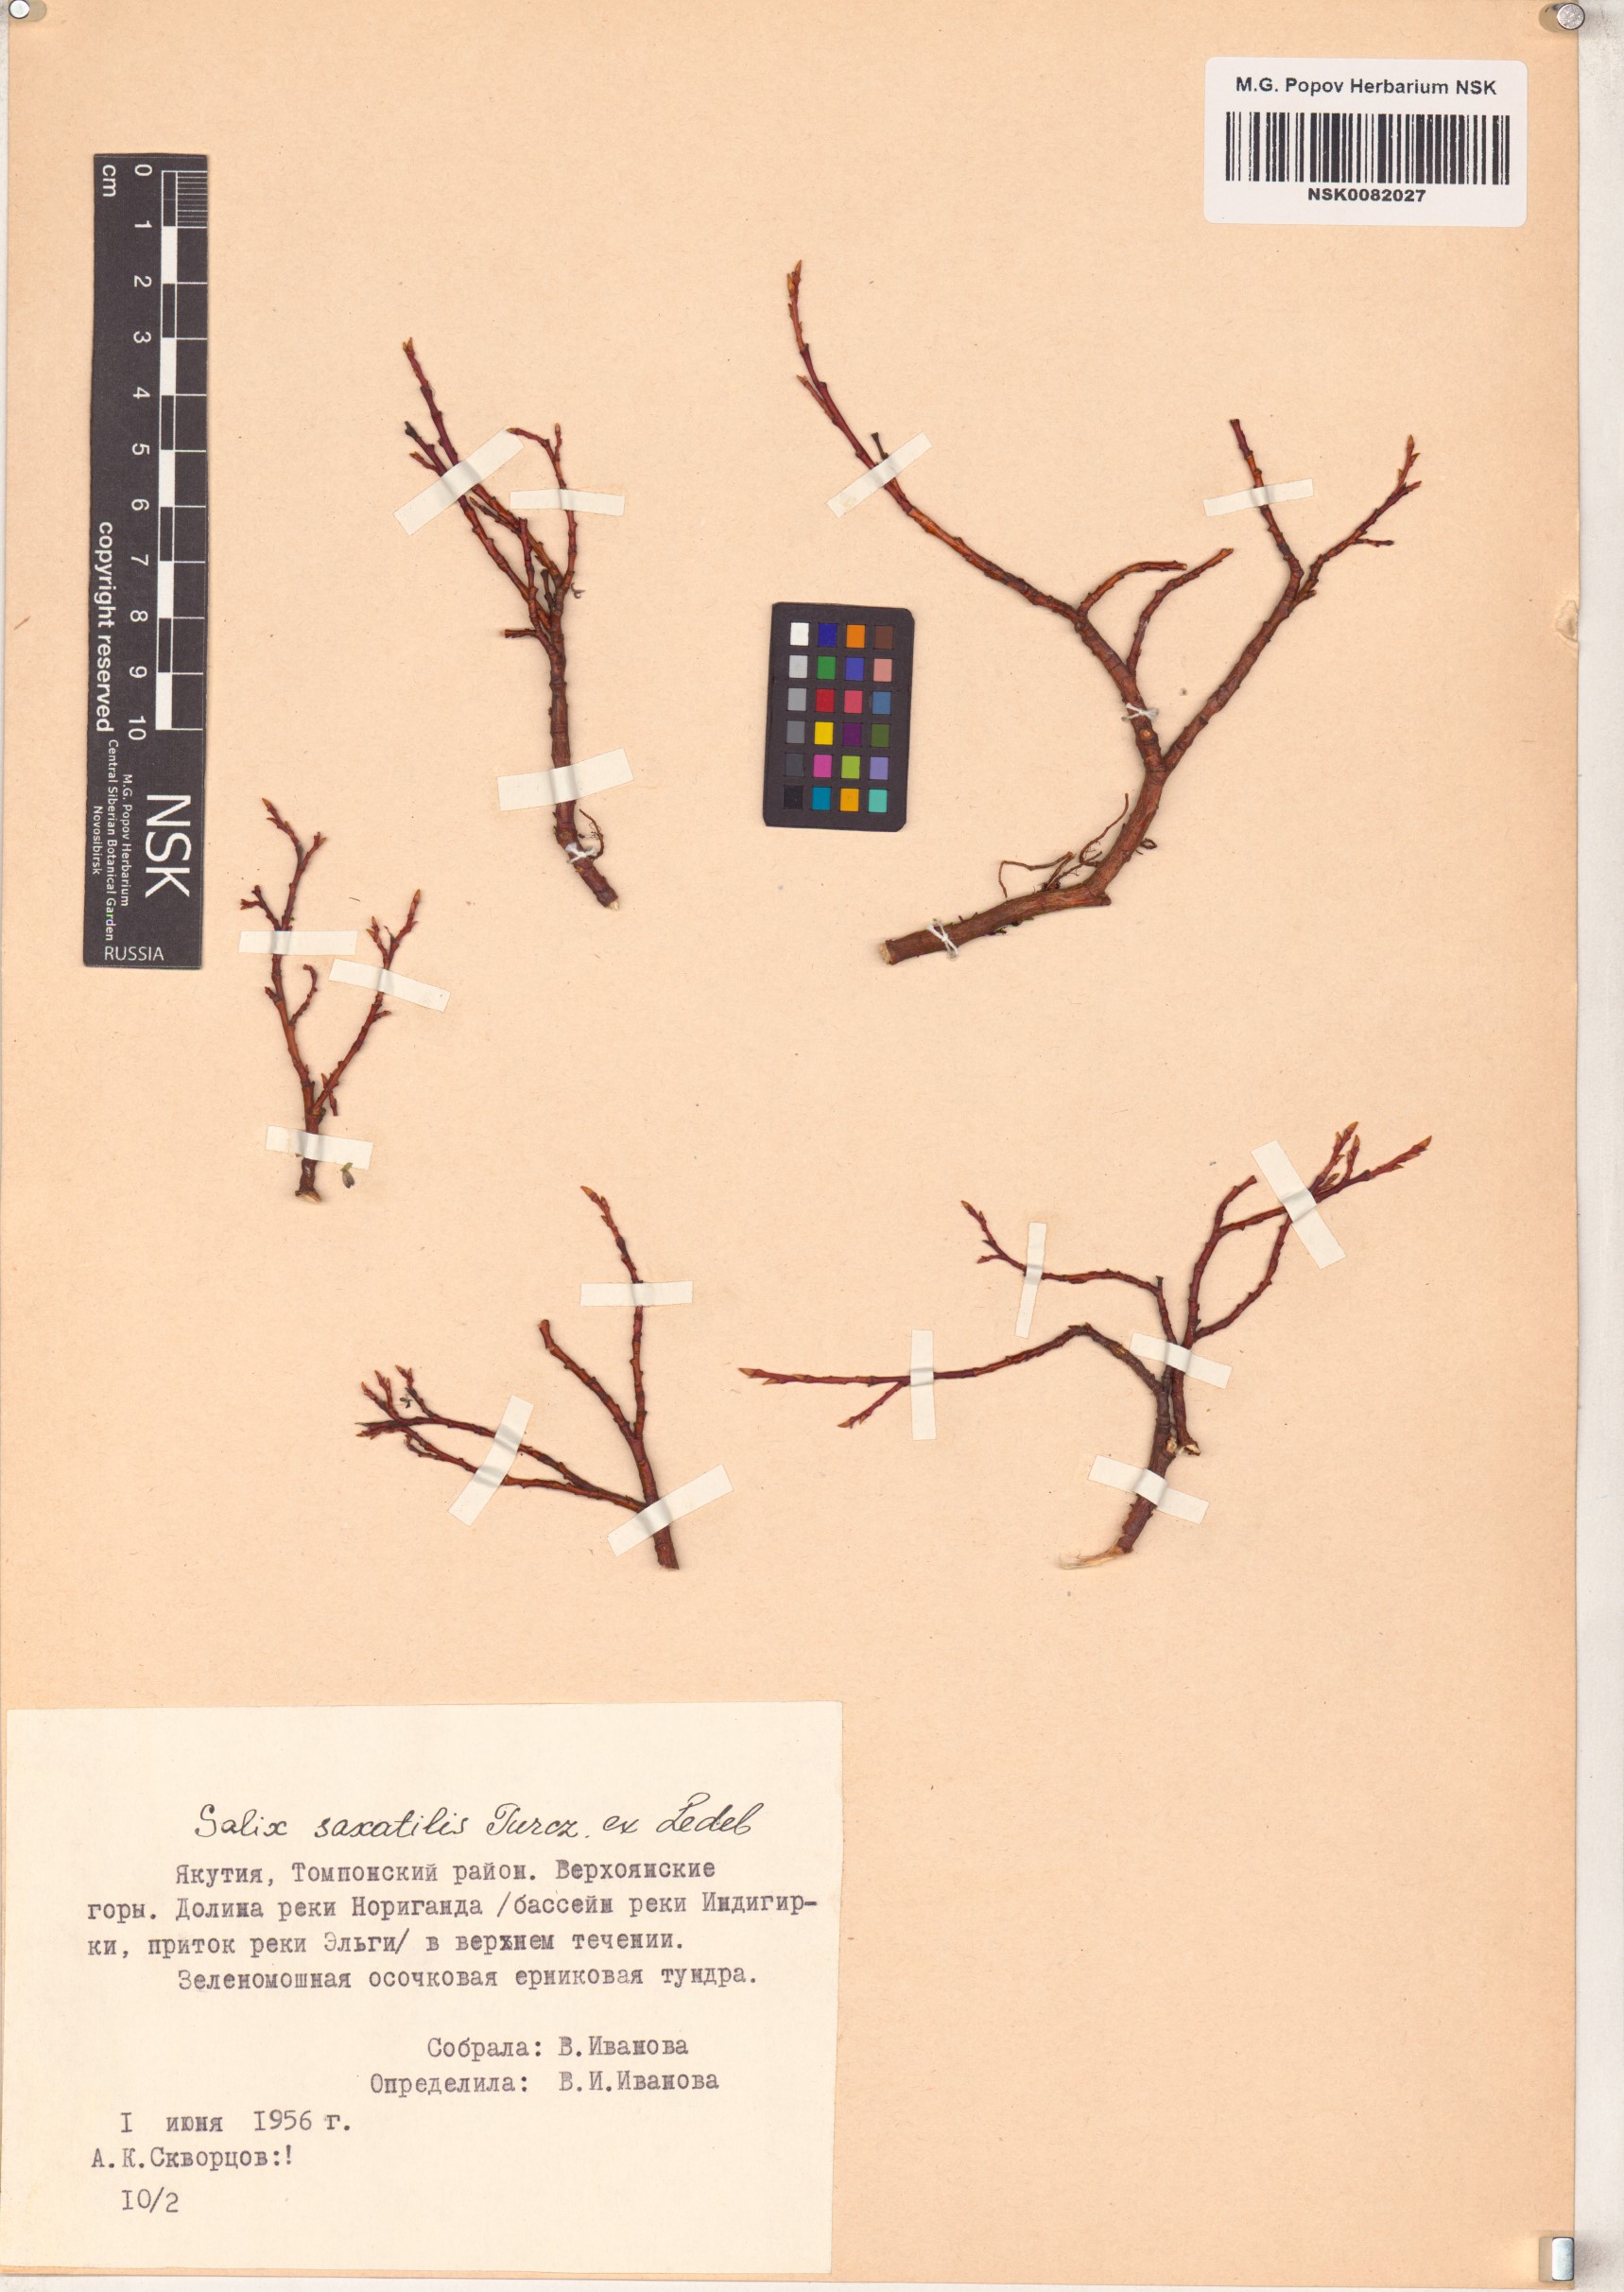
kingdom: Plantae
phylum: Tracheophyta
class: Magnoliopsida
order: Malpighiales
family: Salicaceae
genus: Salix
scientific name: Salix saxatilis
